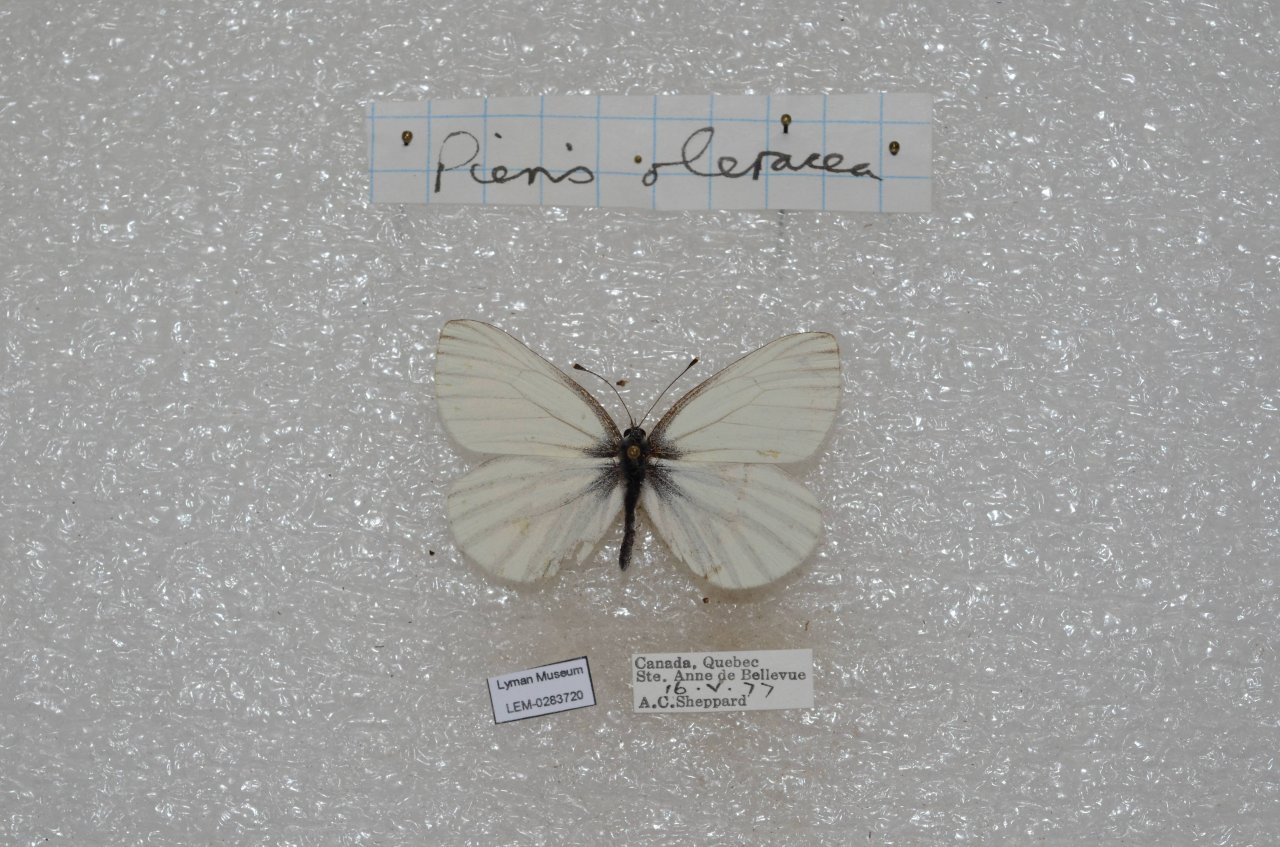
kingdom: Animalia
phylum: Arthropoda
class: Insecta
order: Lepidoptera
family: Pieridae
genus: Pieris
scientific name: Pieris oleracea
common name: Mustard White
